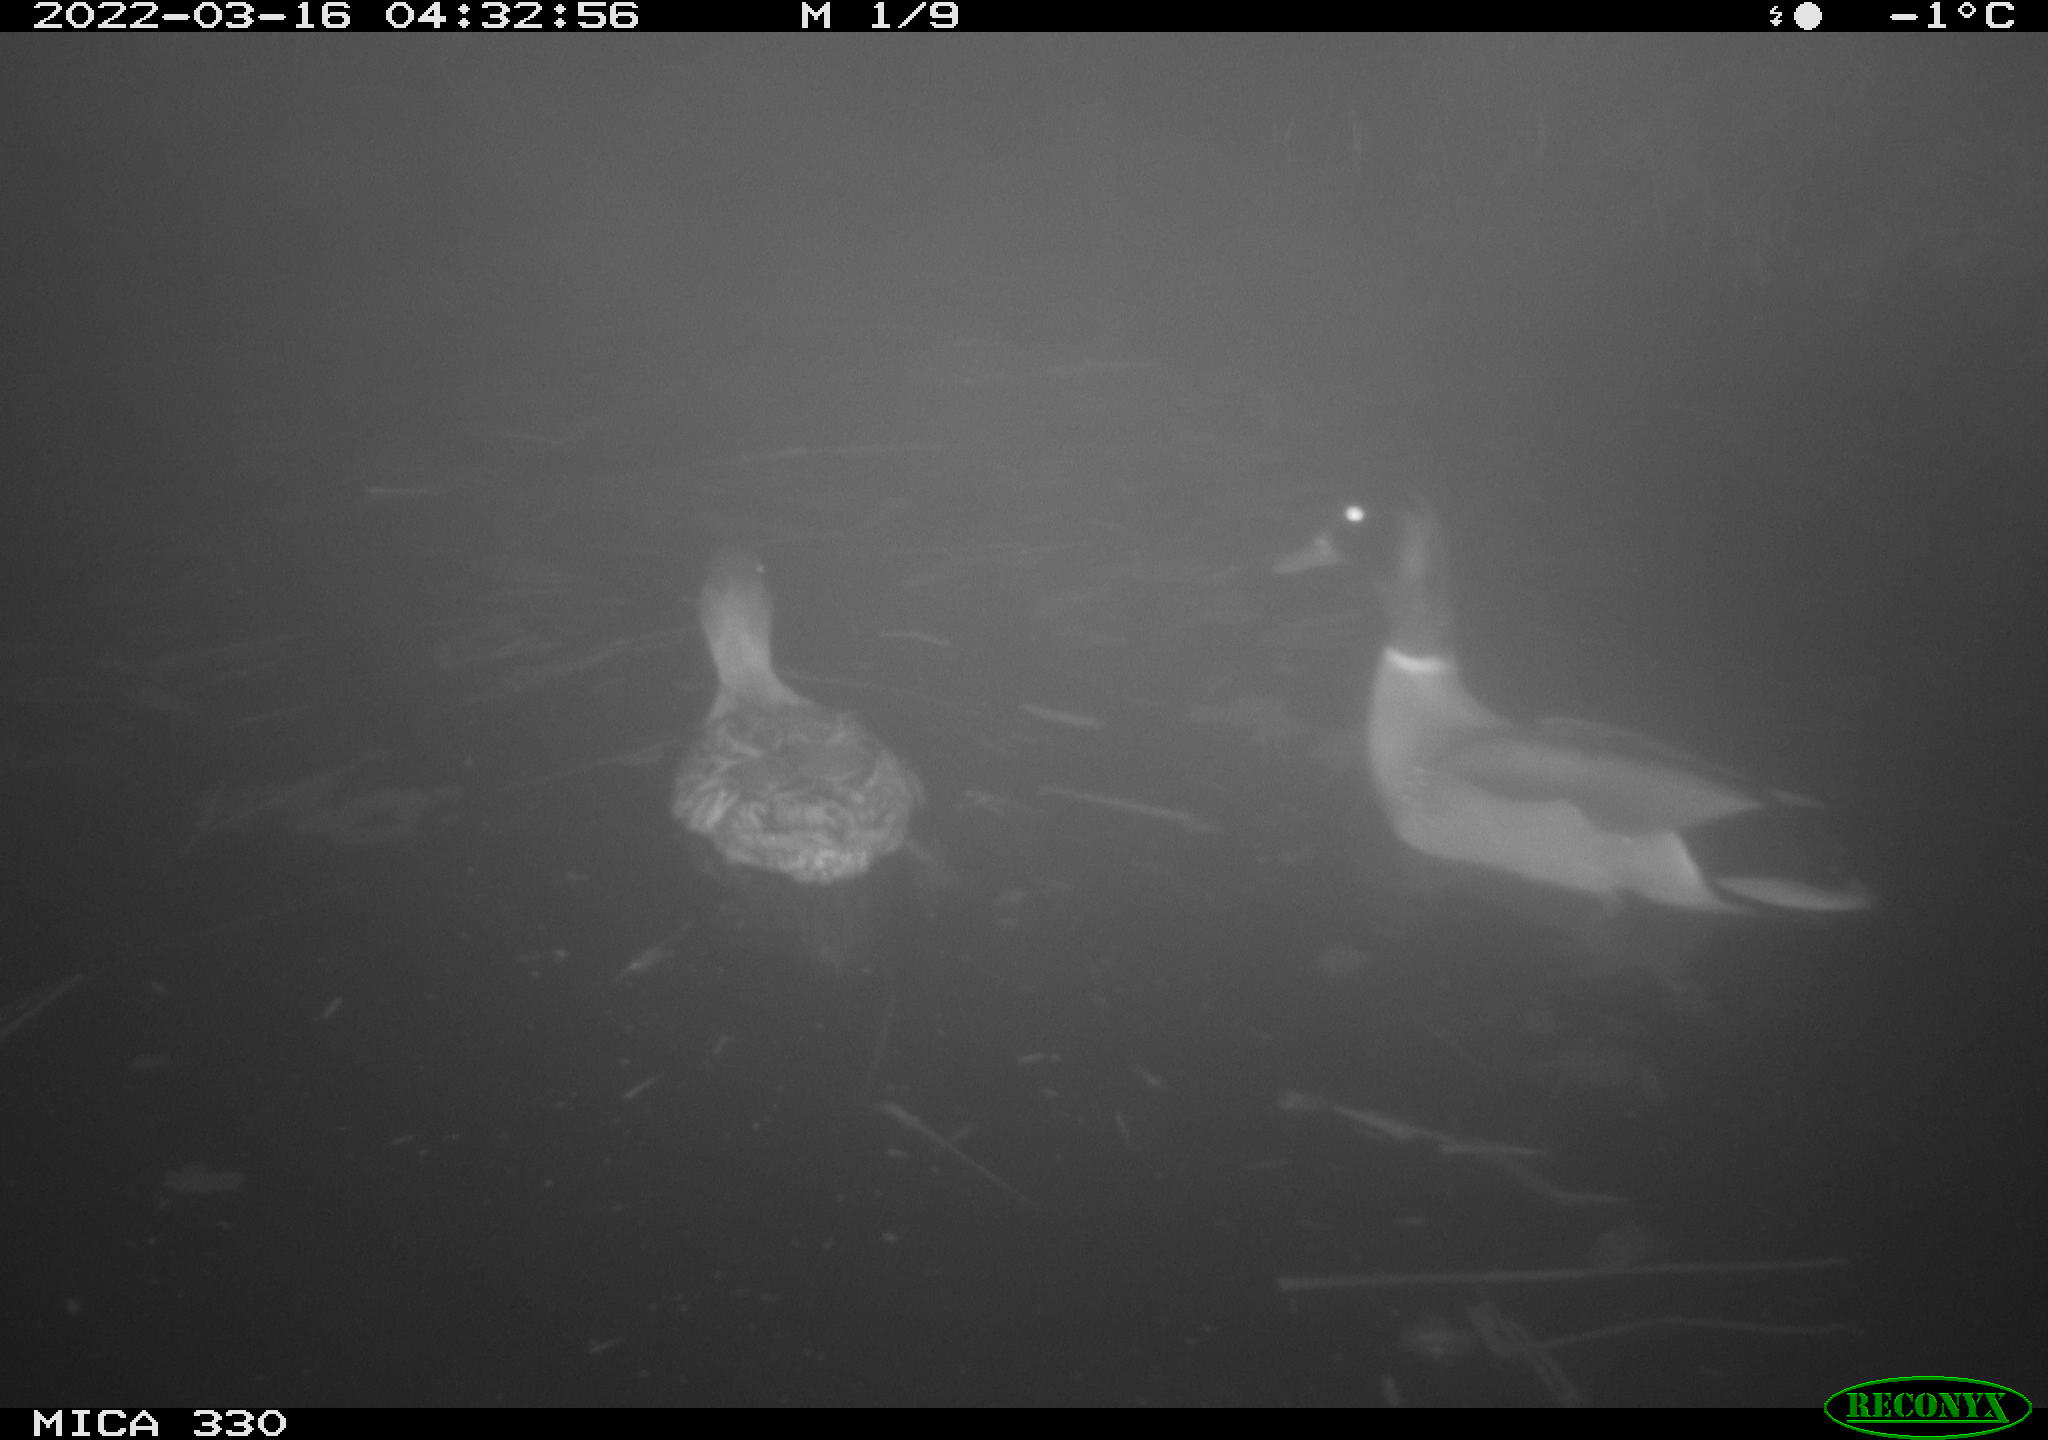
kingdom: Animalia
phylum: Chordata
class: Aves
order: Anseriformes
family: Anatidae
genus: Anas
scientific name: Anas platyrhynchos
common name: Mallard
